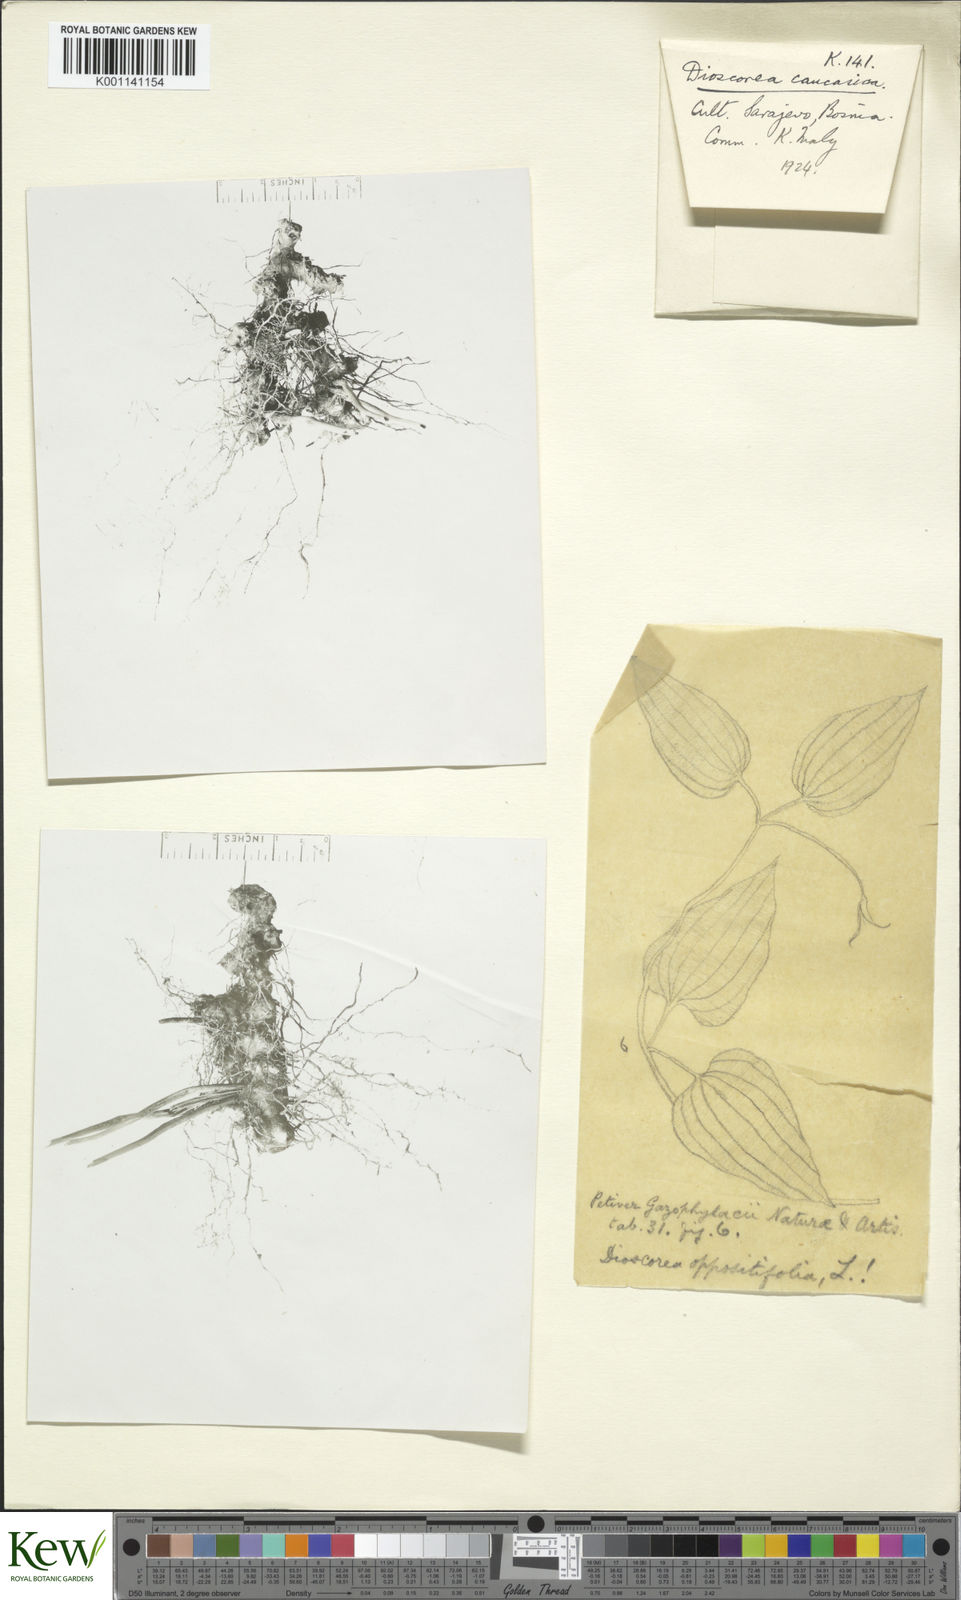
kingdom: Plantae
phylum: Tracheophyta
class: Liliopsida
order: Dioscoreales
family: Dioscoreaceae
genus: Dioscorea
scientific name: Dioscorea caucasica
